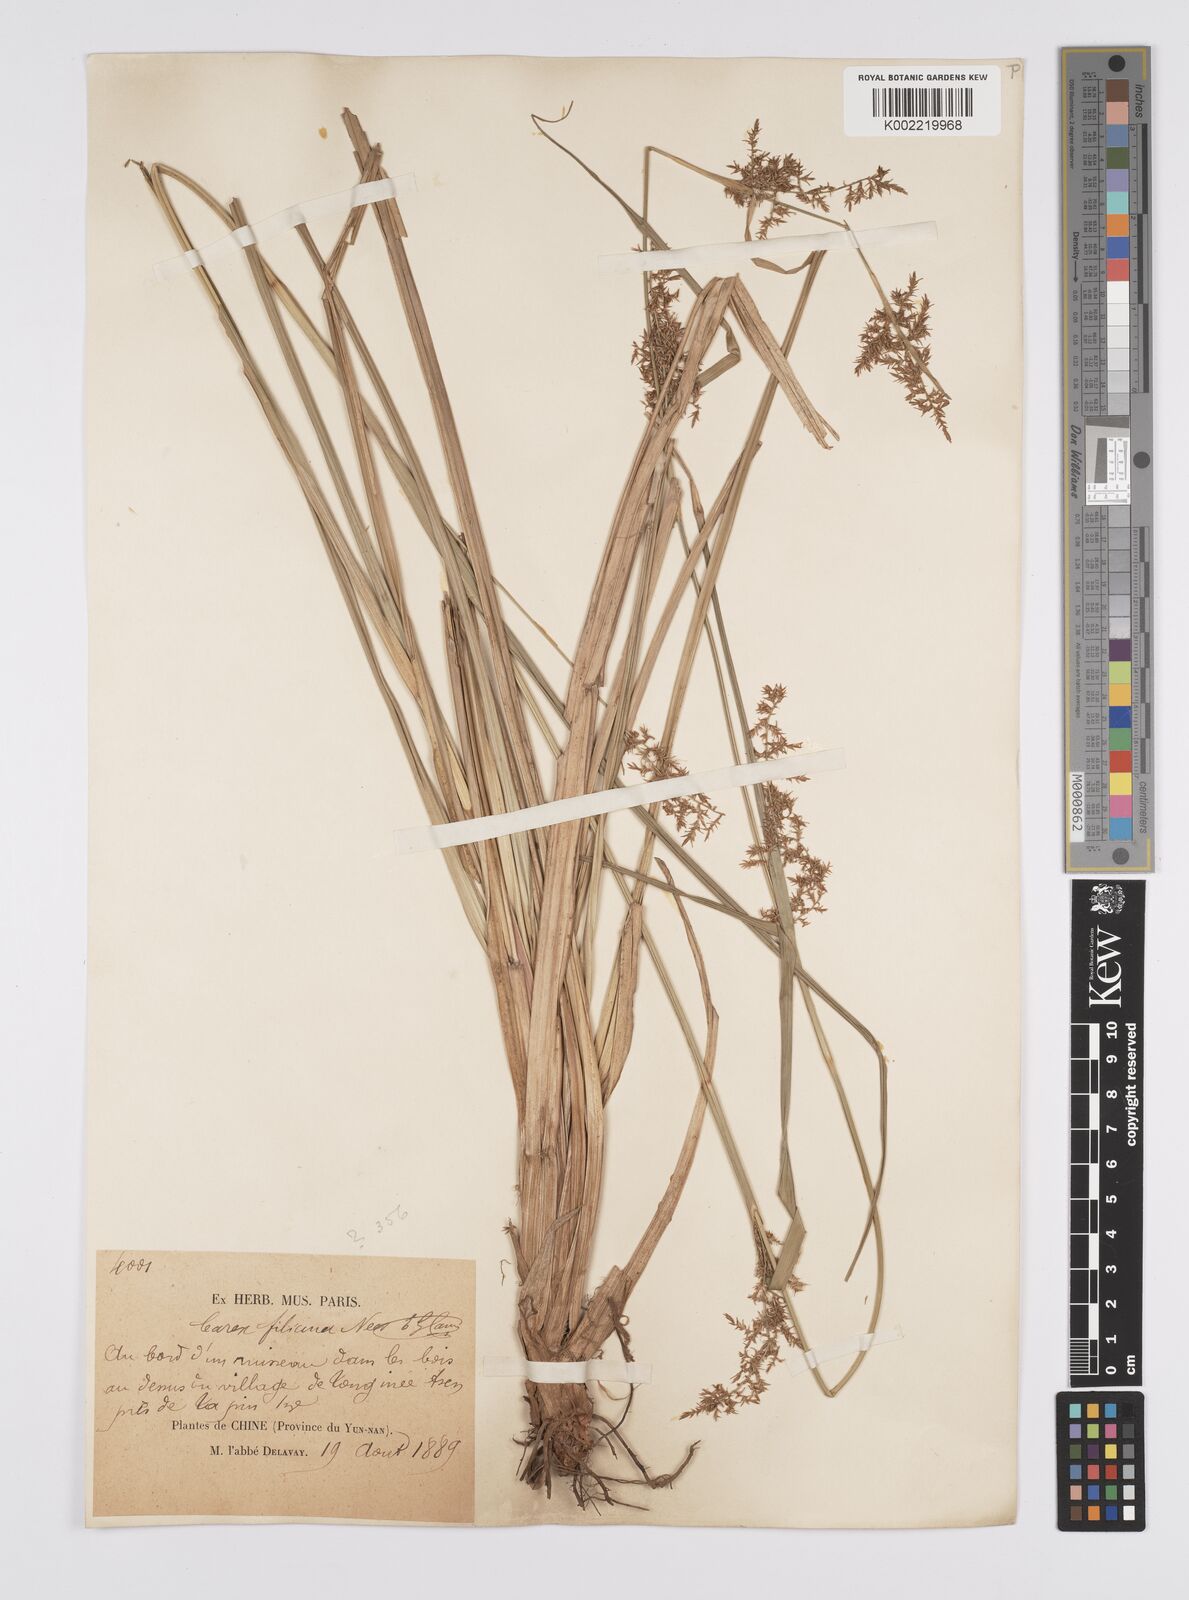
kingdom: Plantae
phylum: Tracheophyta
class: Liliopsida
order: Poales
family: Cyperaceae
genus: Carex
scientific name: Carex filicina
